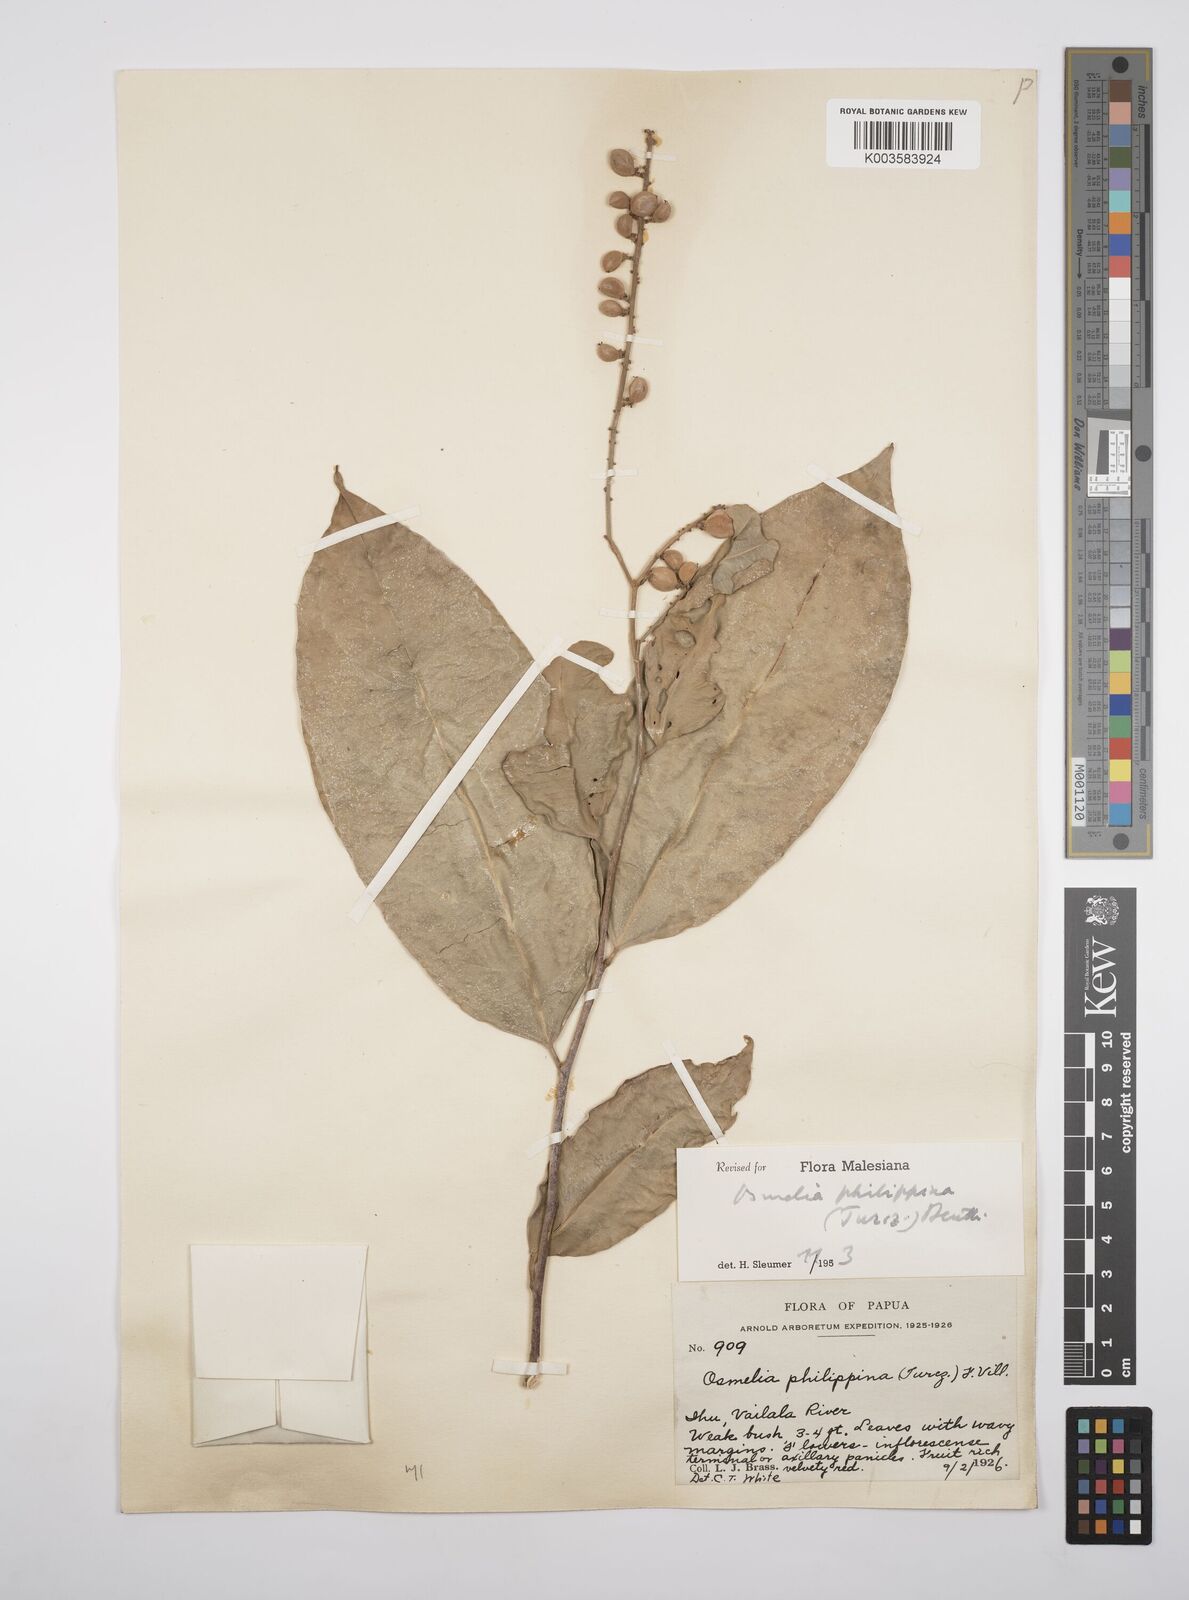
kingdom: Plantae
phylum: Tracheophyta
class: Magnoliopsida
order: Malpighiales
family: Salicaceae
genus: Osmelia
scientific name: Osmelia philippina
